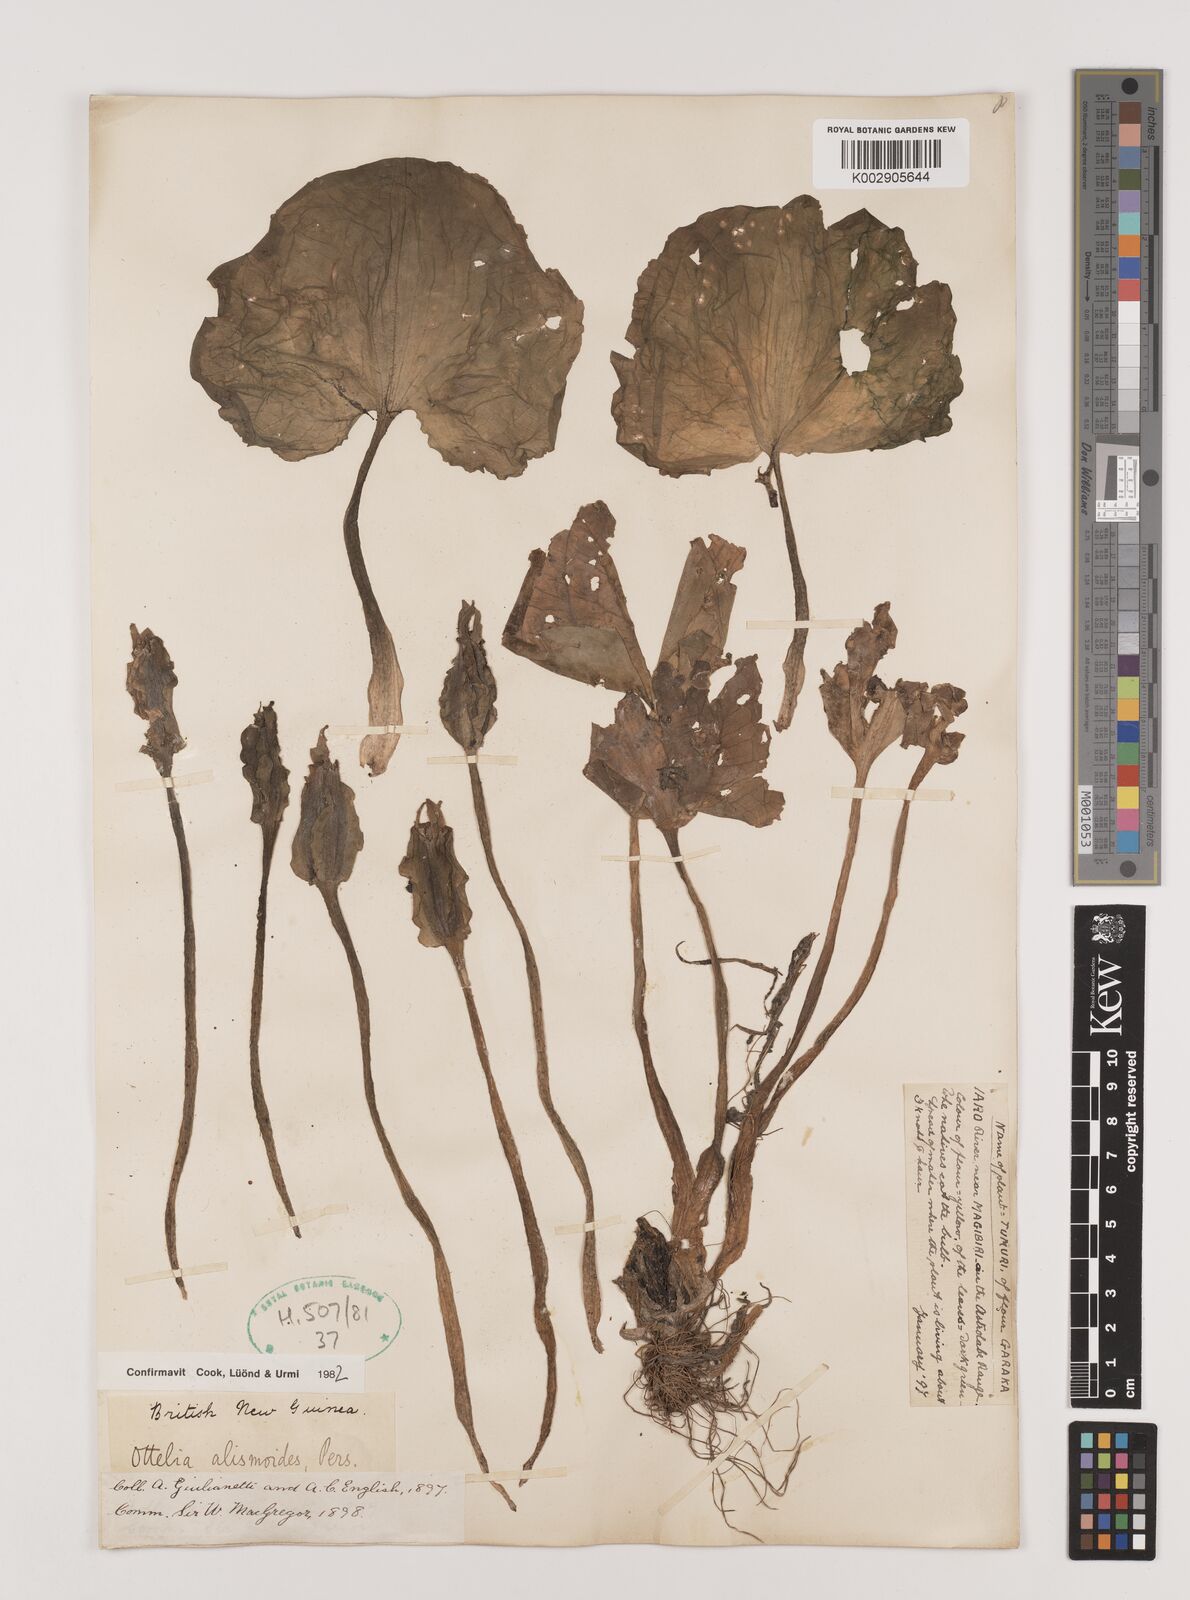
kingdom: Plantae
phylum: Tracheophyta
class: Liliopsida
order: Alismatales
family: Hydrocharitaceae
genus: Ottelia
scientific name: Ottelia alismoides
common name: Duck-lettuce
